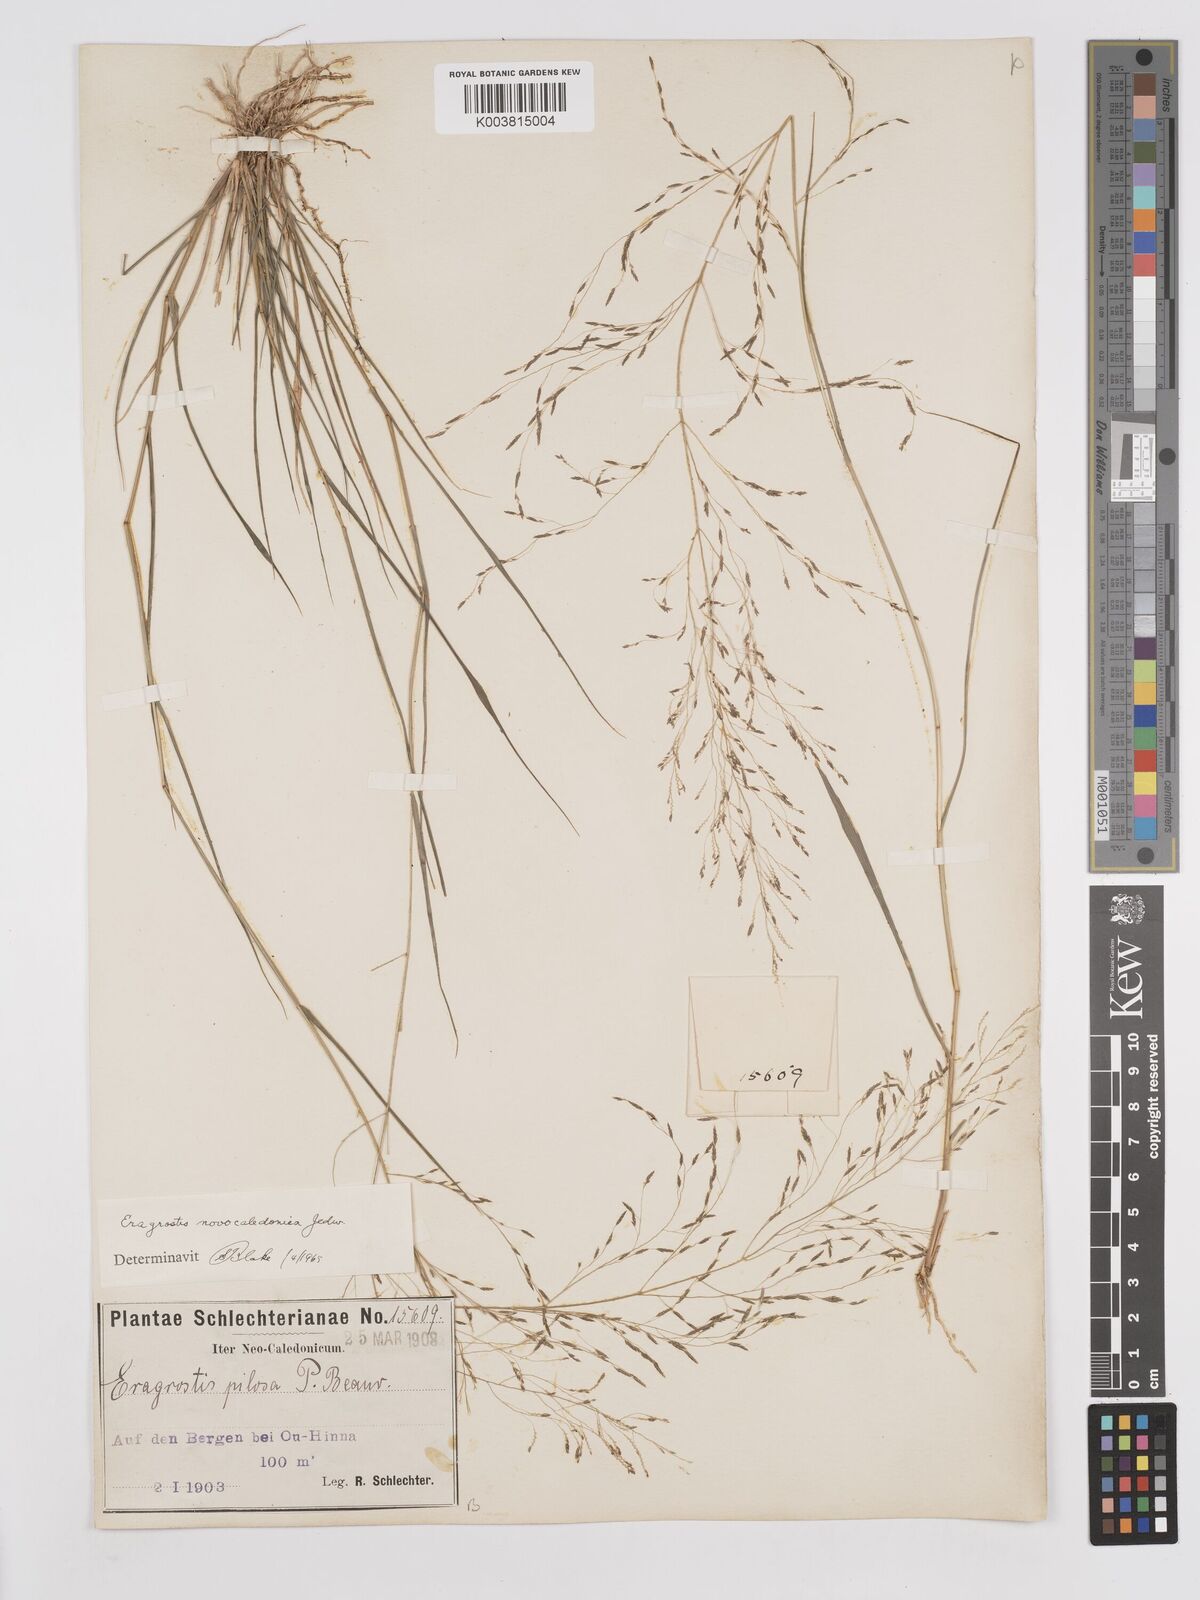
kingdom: Plantae
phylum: Tracheophyta
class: Liliopsida
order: Poales
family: Poaceae
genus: Eragrostis
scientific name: Eragrostis parviflora
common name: Weeping love-grass
